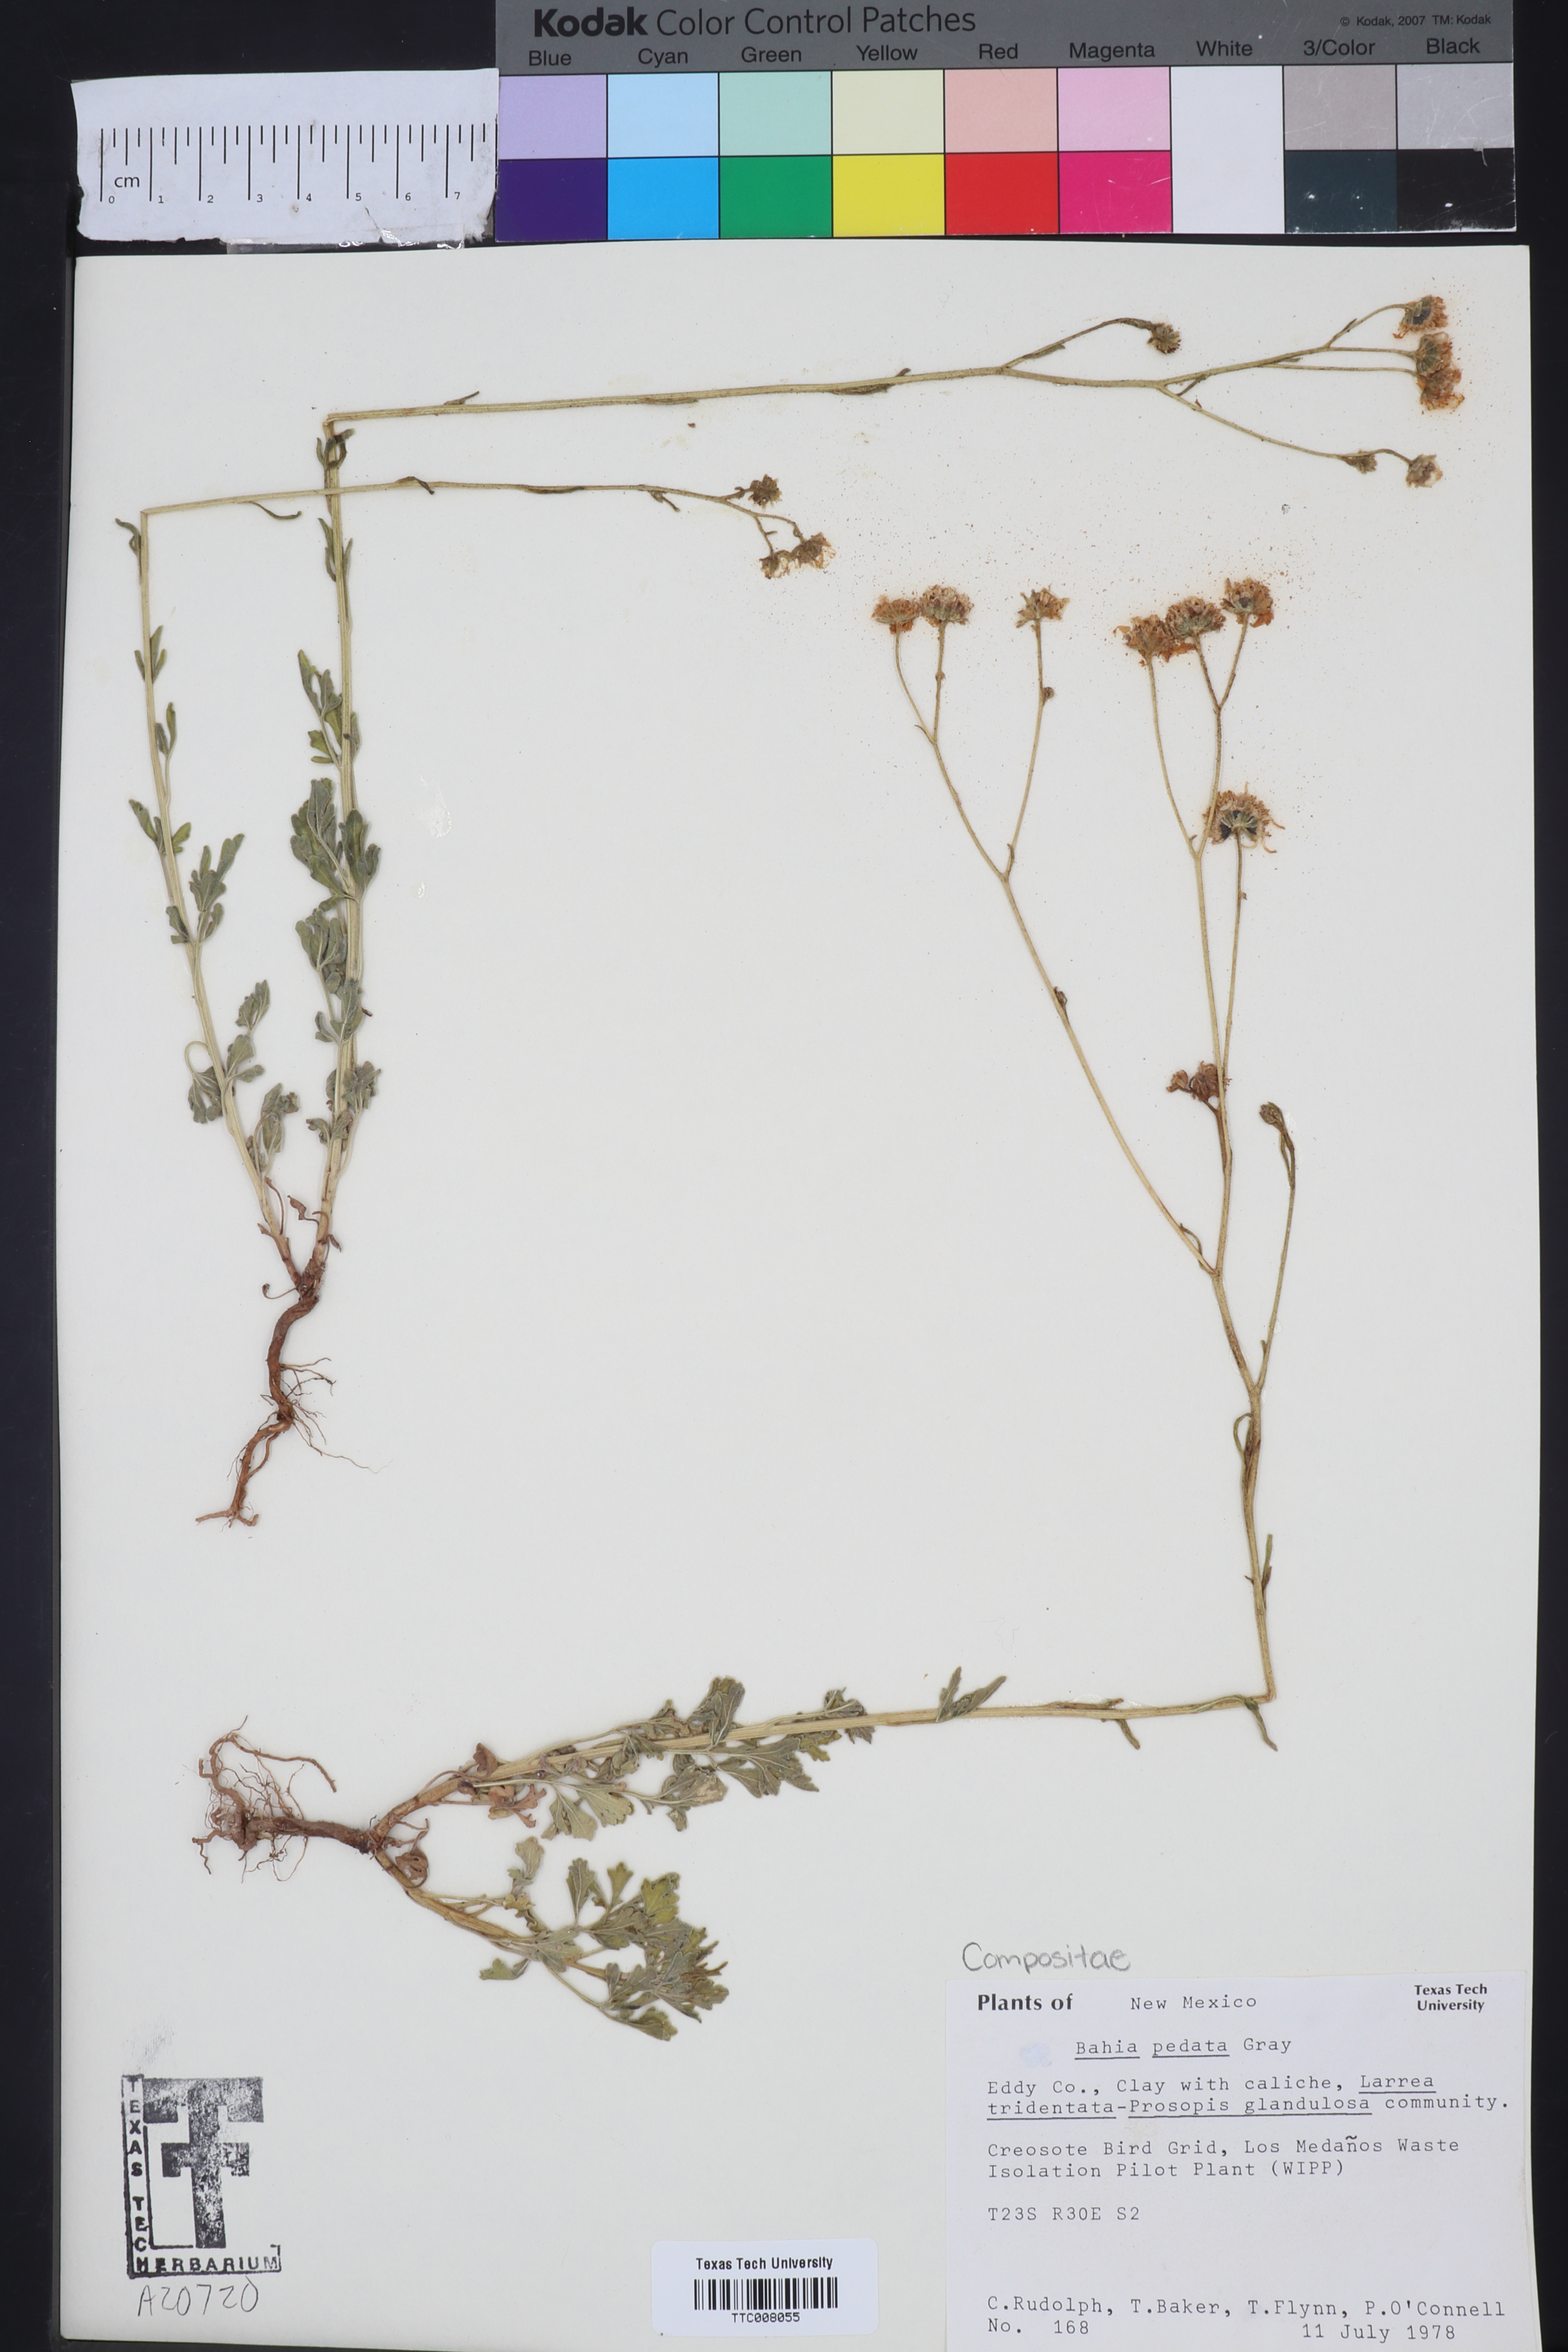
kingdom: Plantae
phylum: Tracheophyta
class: Magnoliopsida
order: Asterales
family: Asteraceae
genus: Hymenothrix
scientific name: Hymenothrix pedata
